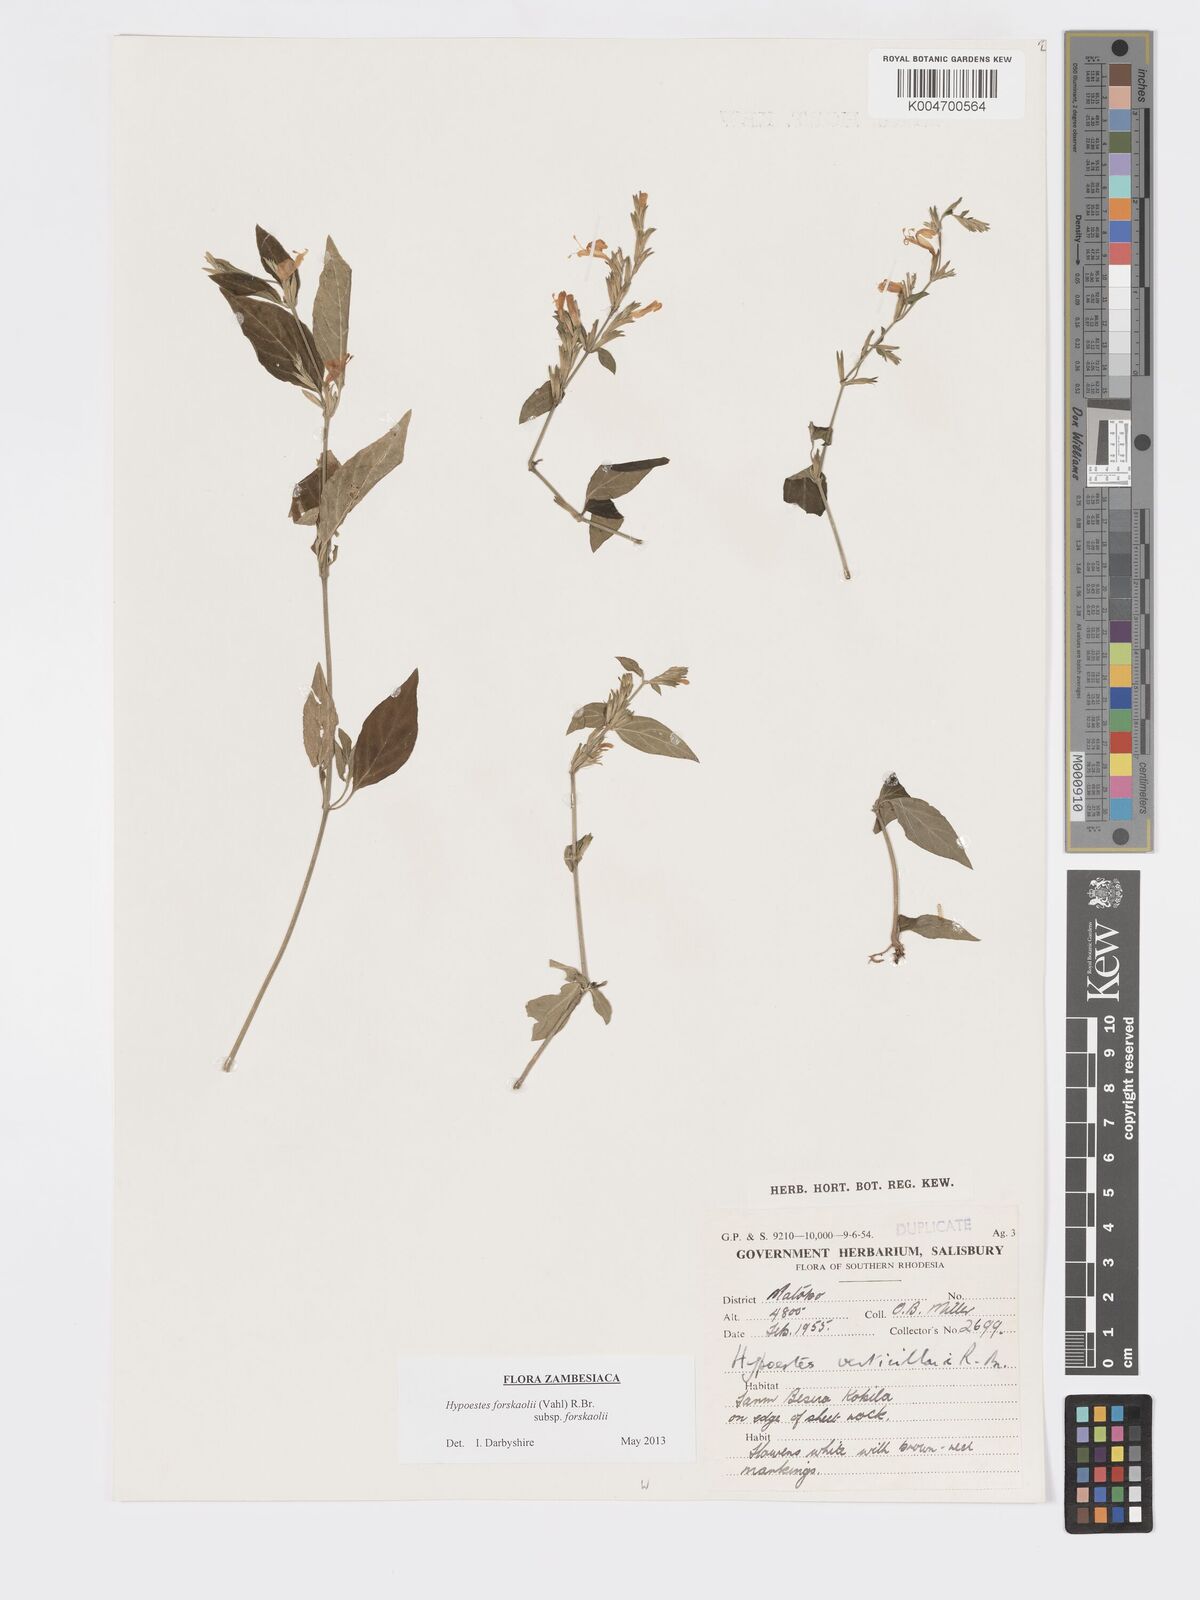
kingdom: Plantae
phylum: Tracheophyta
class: Magnoliopsida
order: Lamiales
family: Acanthaceae
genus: Hypoestes
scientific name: Hypoestes forskaolii
